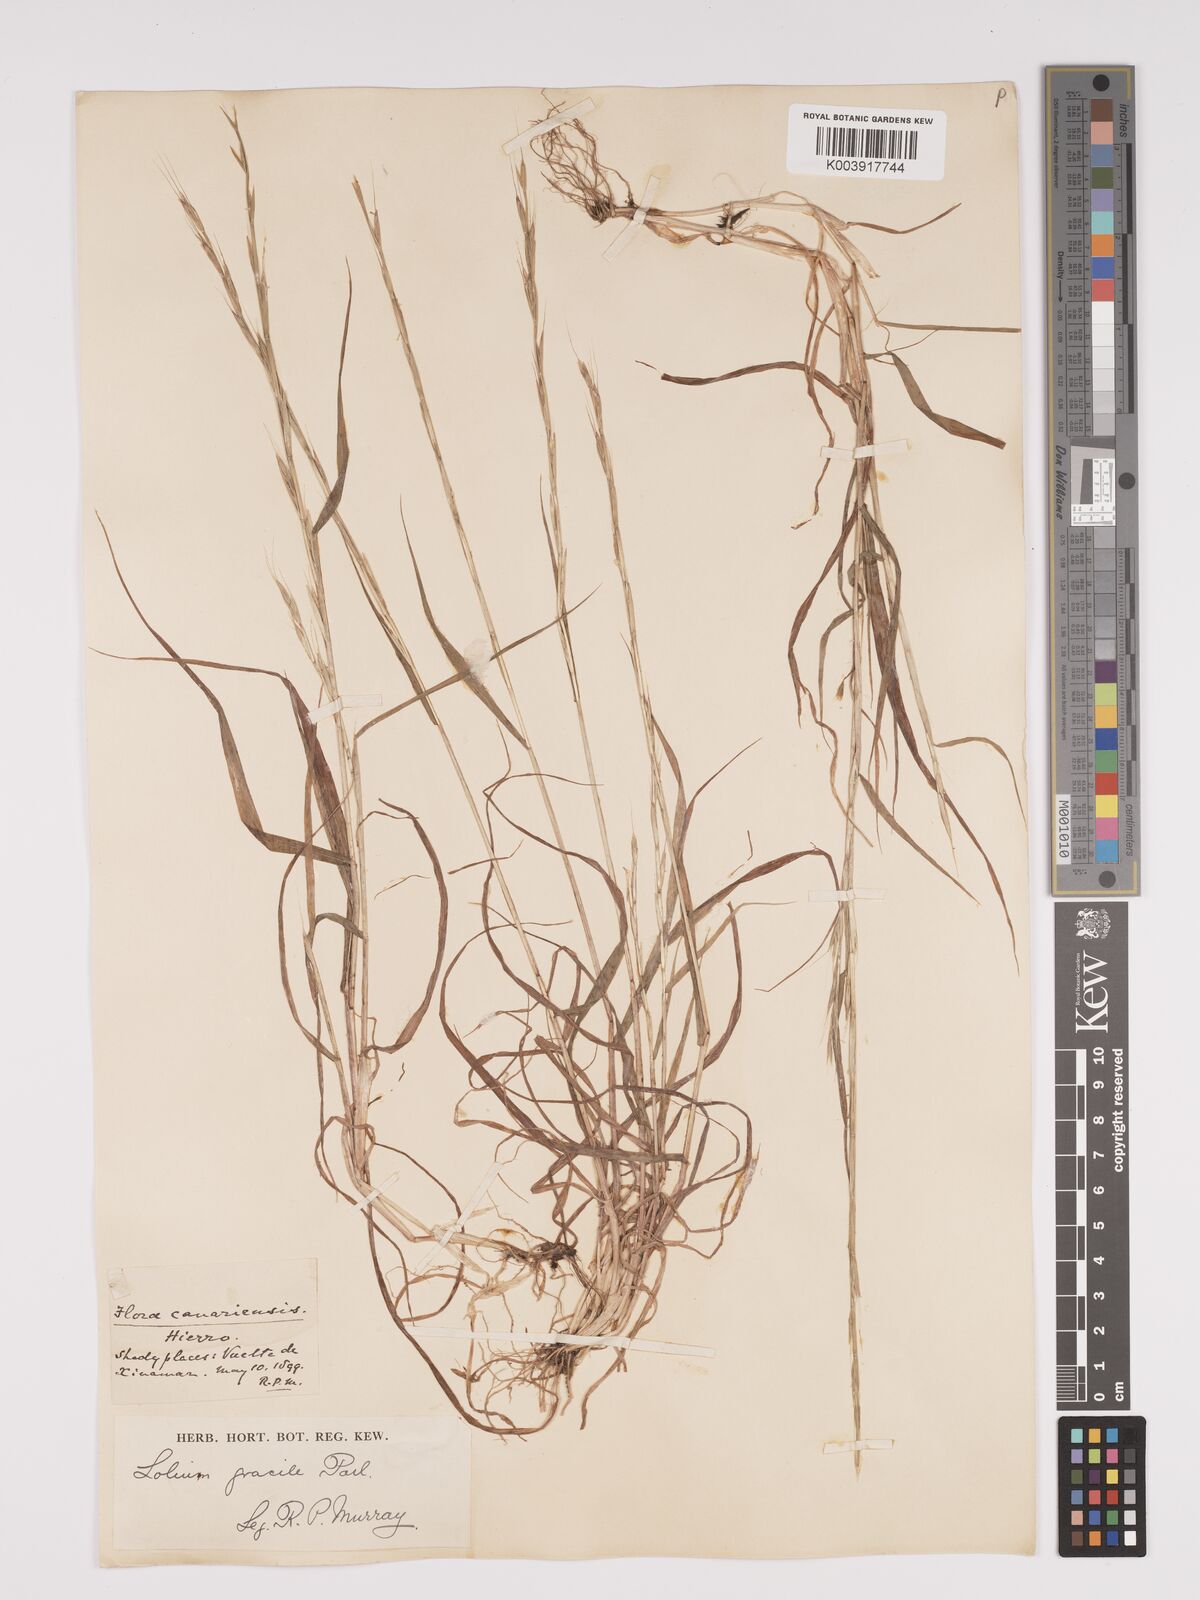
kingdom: Plantae
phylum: Tracheophyta
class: Liliopsida
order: Poales
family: Poaceae
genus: Lolium
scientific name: Lolium canariense
